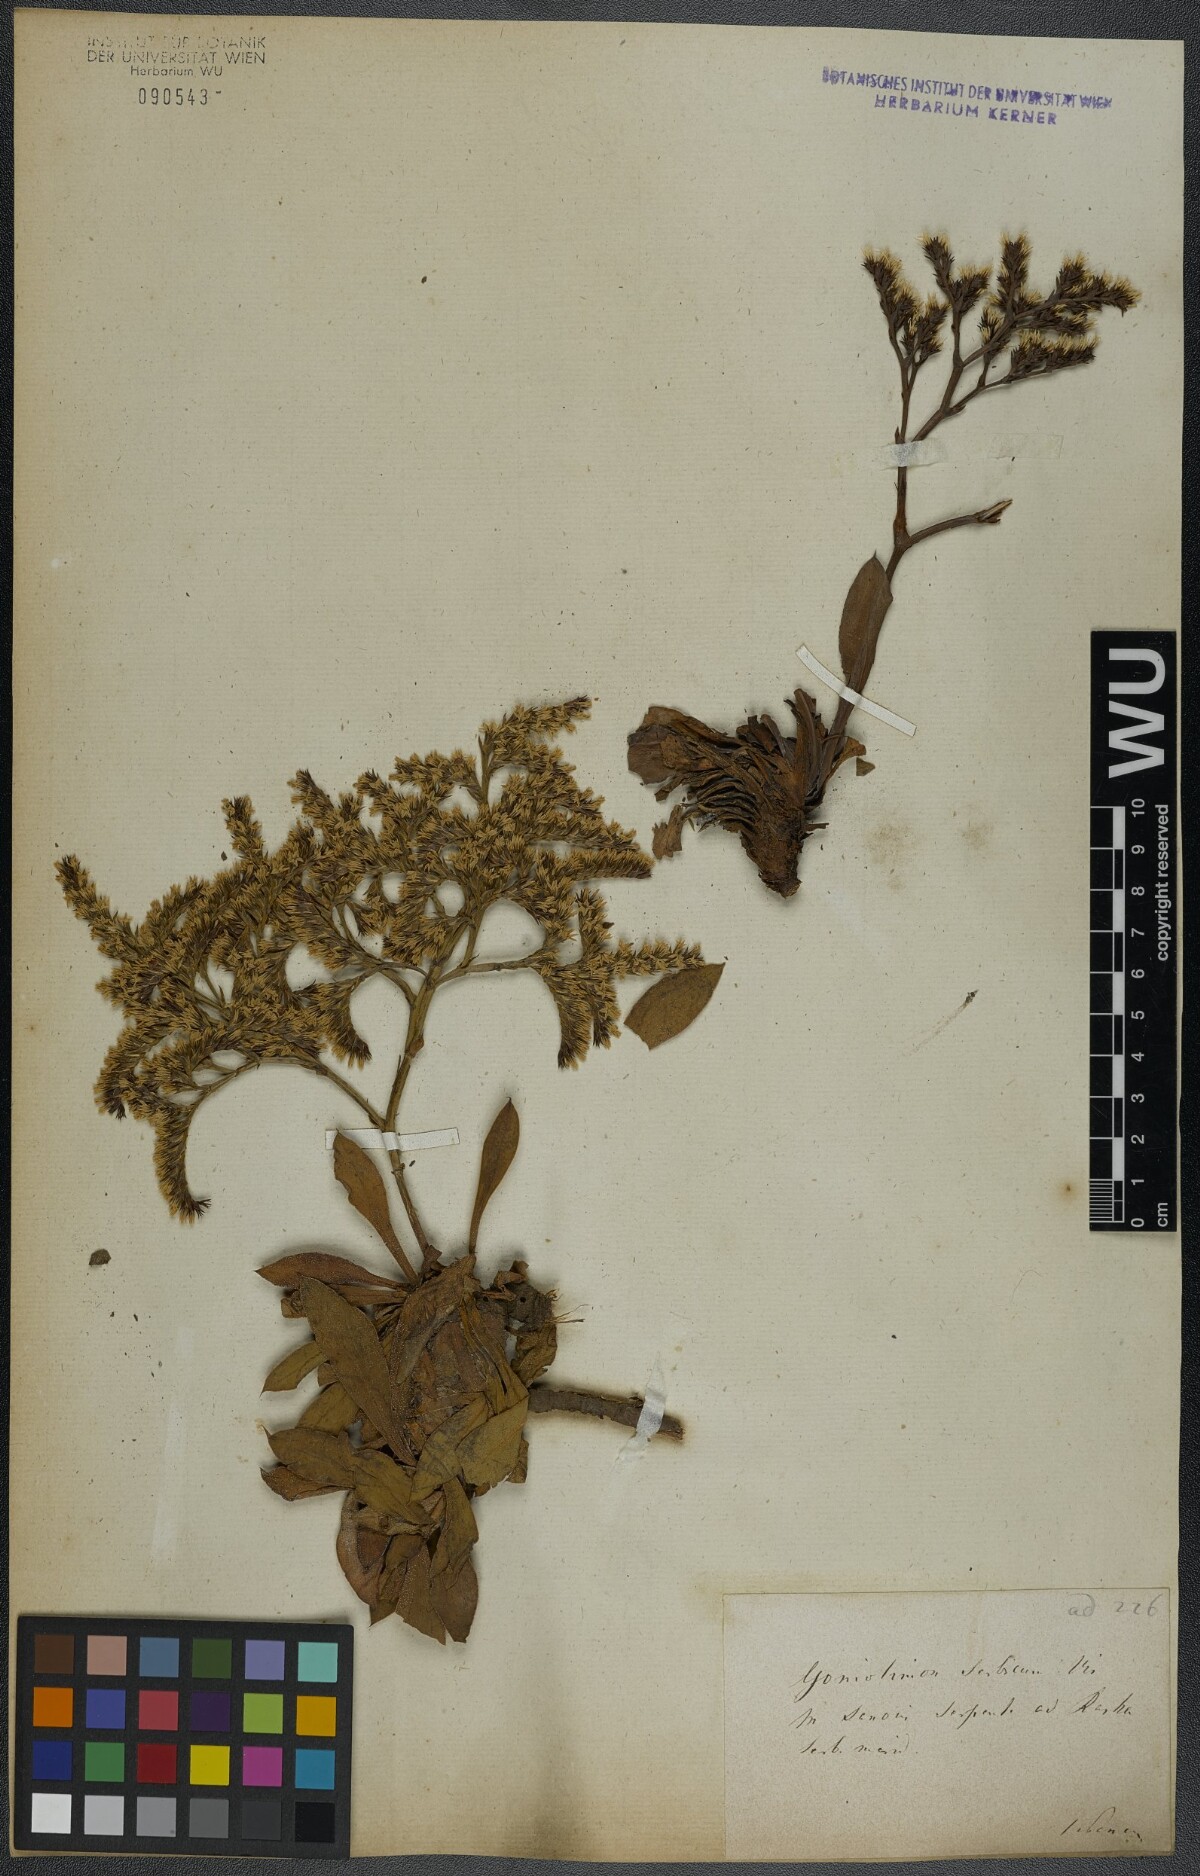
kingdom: Plantae
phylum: Tracheophyta
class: Magnoliopsida
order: Caryophyllales
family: Plumbaginaceae
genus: Goniolimon
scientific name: Goniolimon incanum
